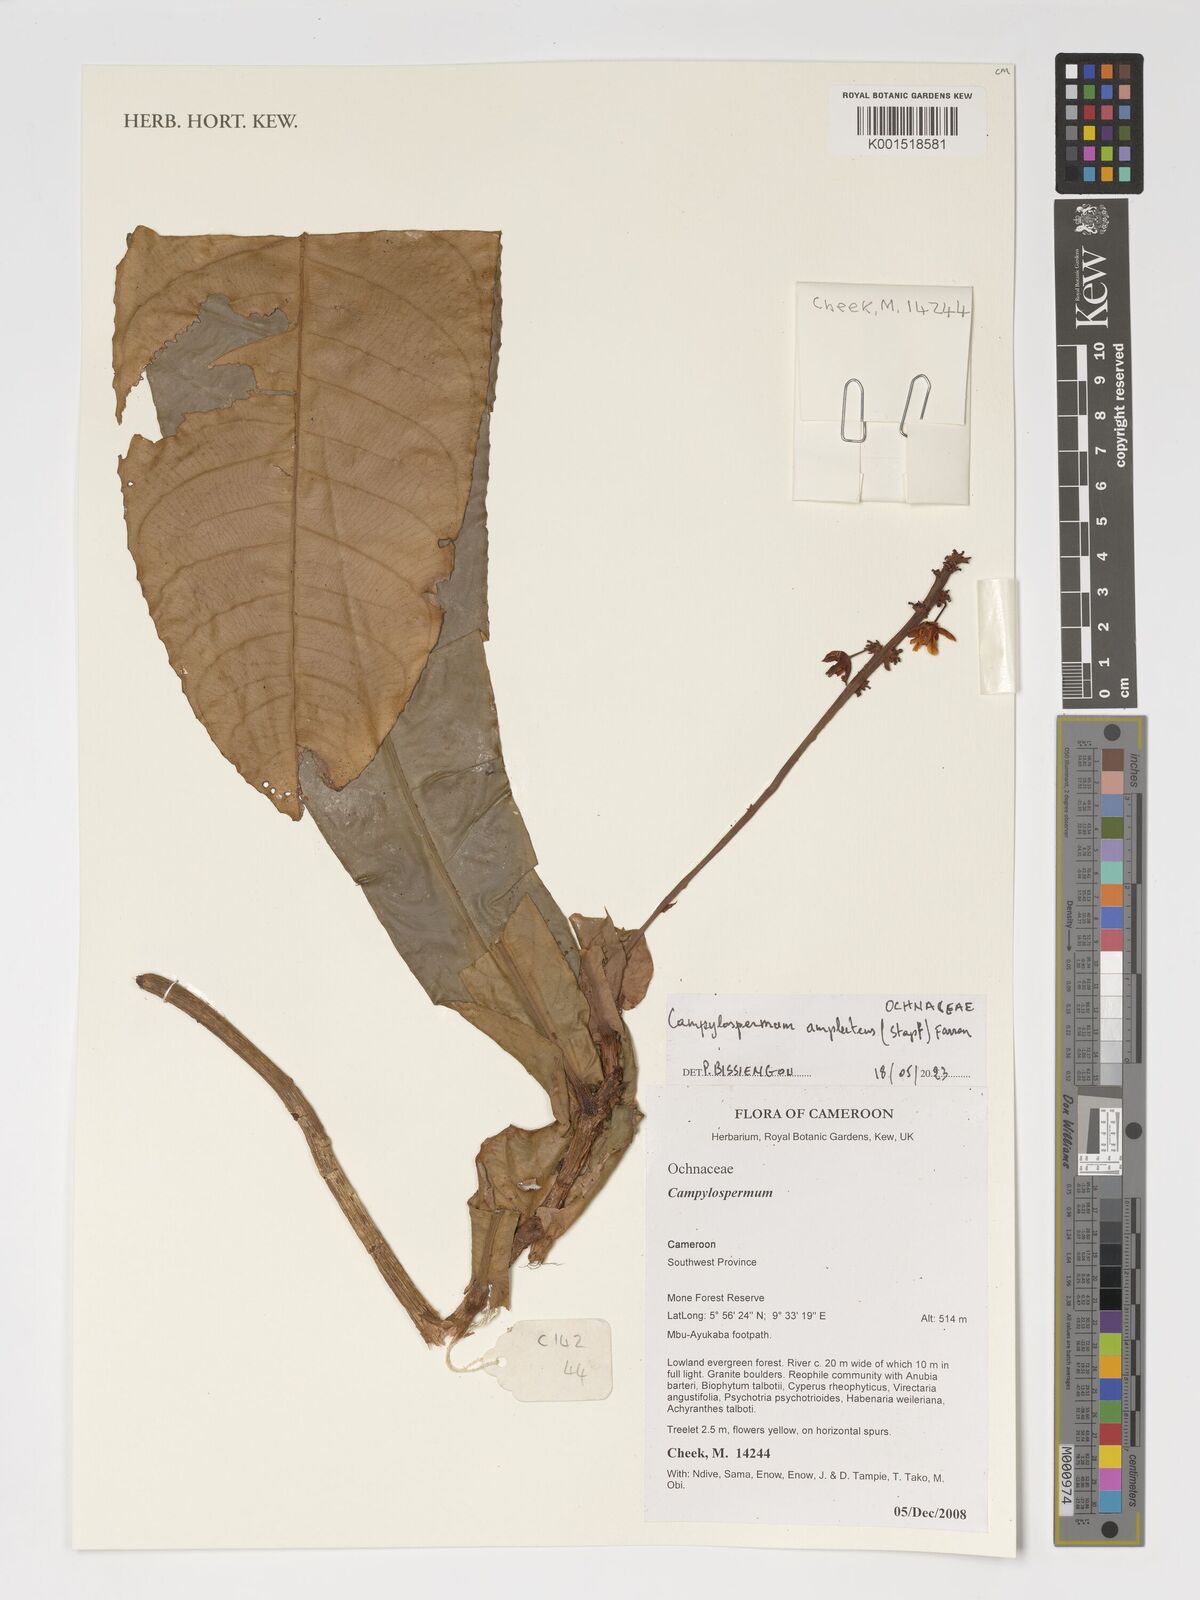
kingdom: Plantae
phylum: Tracheophyta
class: Magnoliopsida
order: Malpighiales
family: Ochnaceae
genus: Campylospermum
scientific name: Campylospermum amplectens
